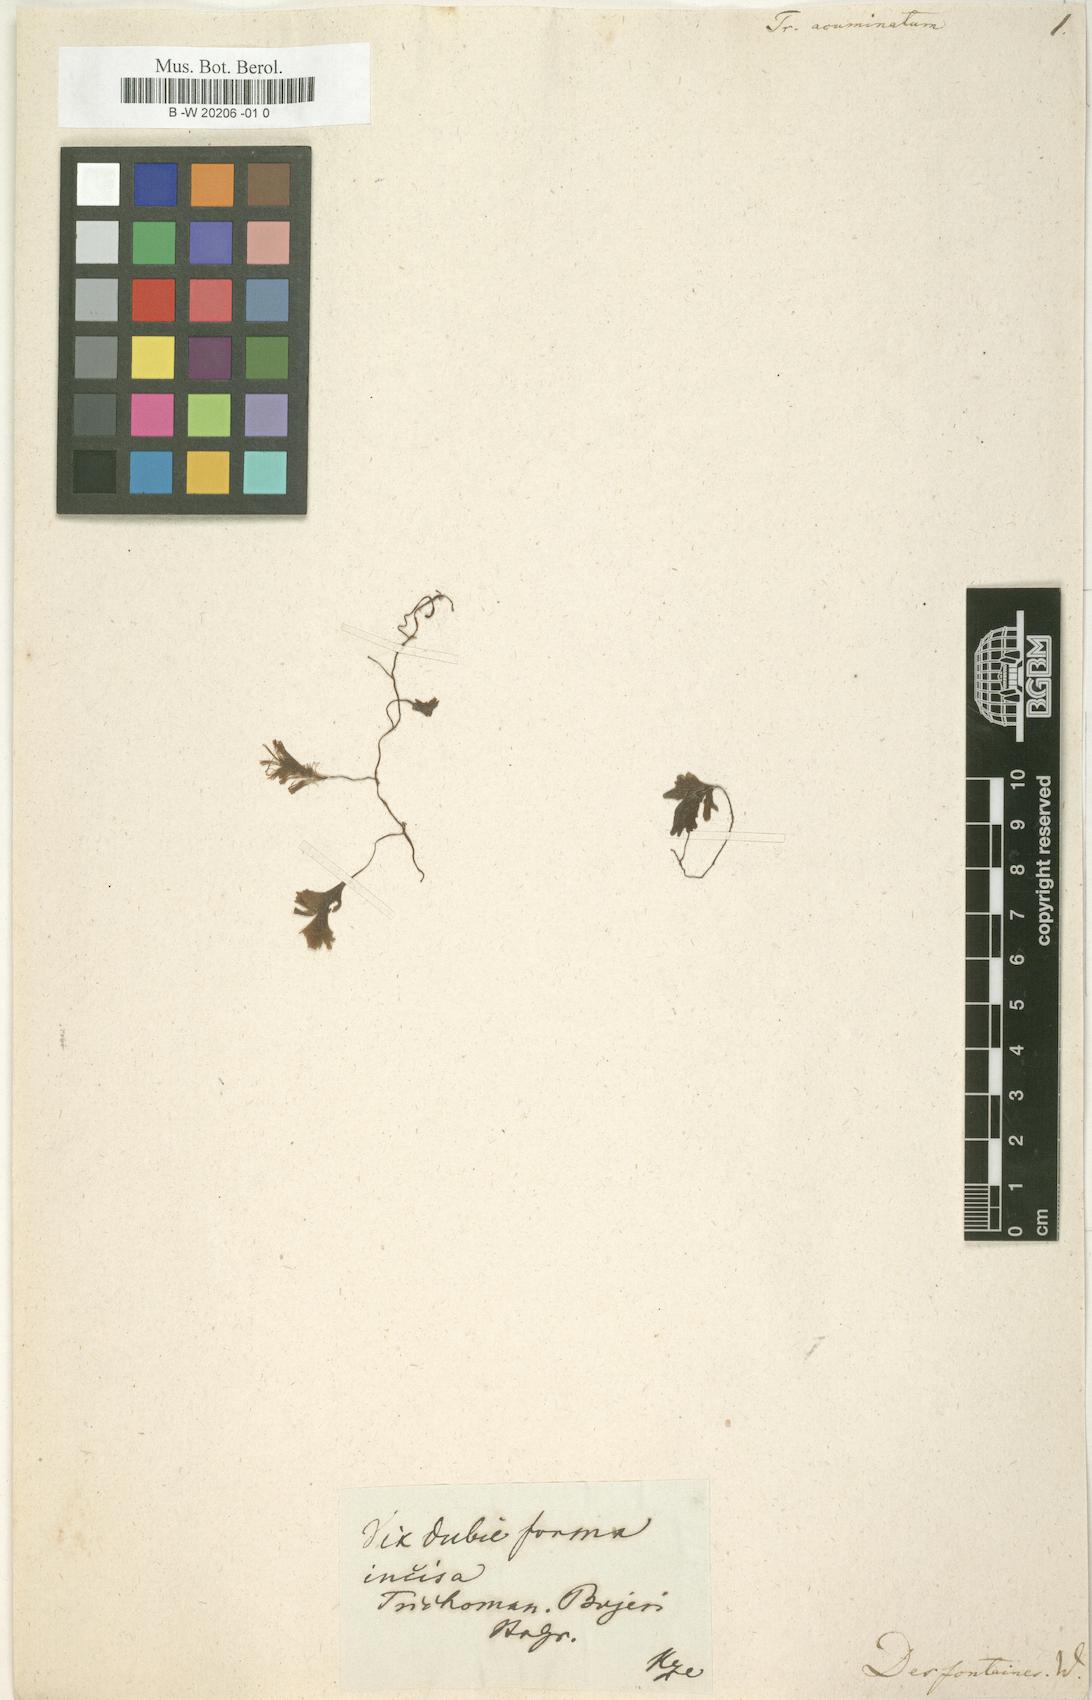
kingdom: Plantae
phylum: Tracheophyta
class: Polypodiopsida
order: Hymenophyllales
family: Hymenophyllaceae
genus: Trichomanes
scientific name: Trichomanes
